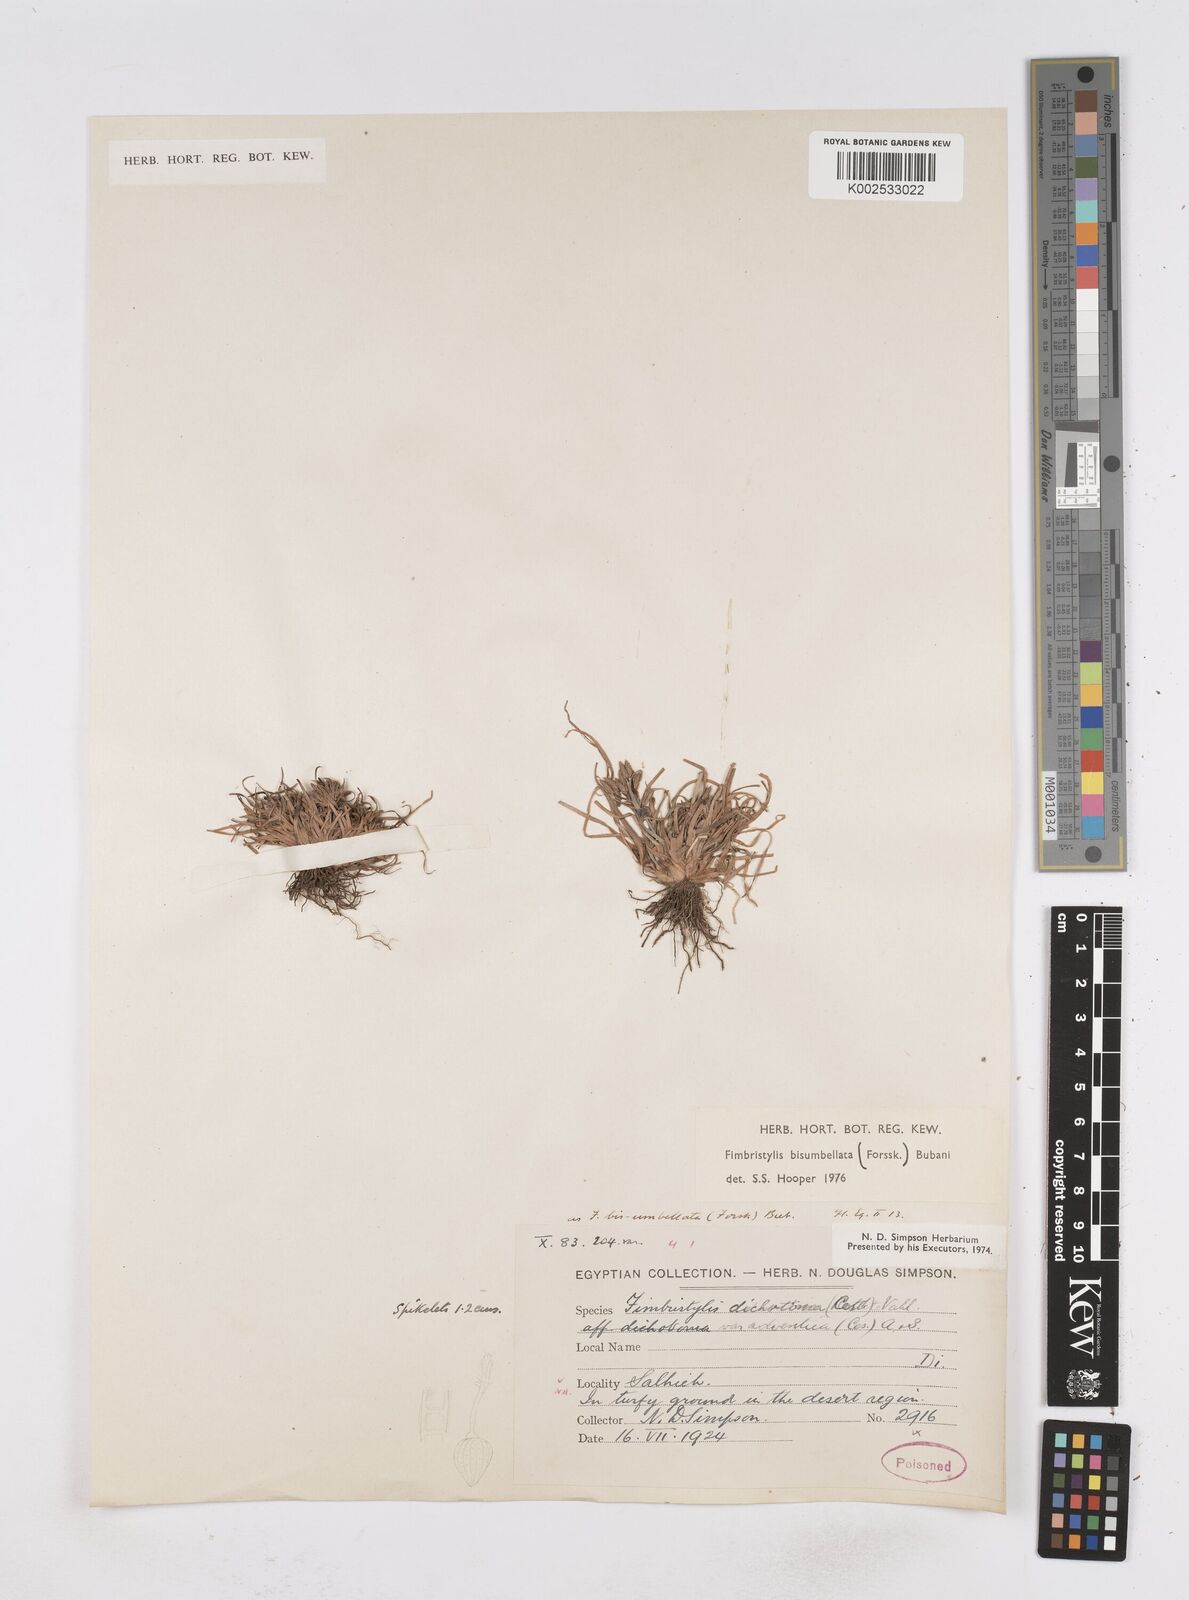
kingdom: Plantae
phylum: Tracheophyta
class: Liliopsida
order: Poales
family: Cyperaceae
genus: Fimbristylis
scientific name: Fimbristylis bisumbellata
